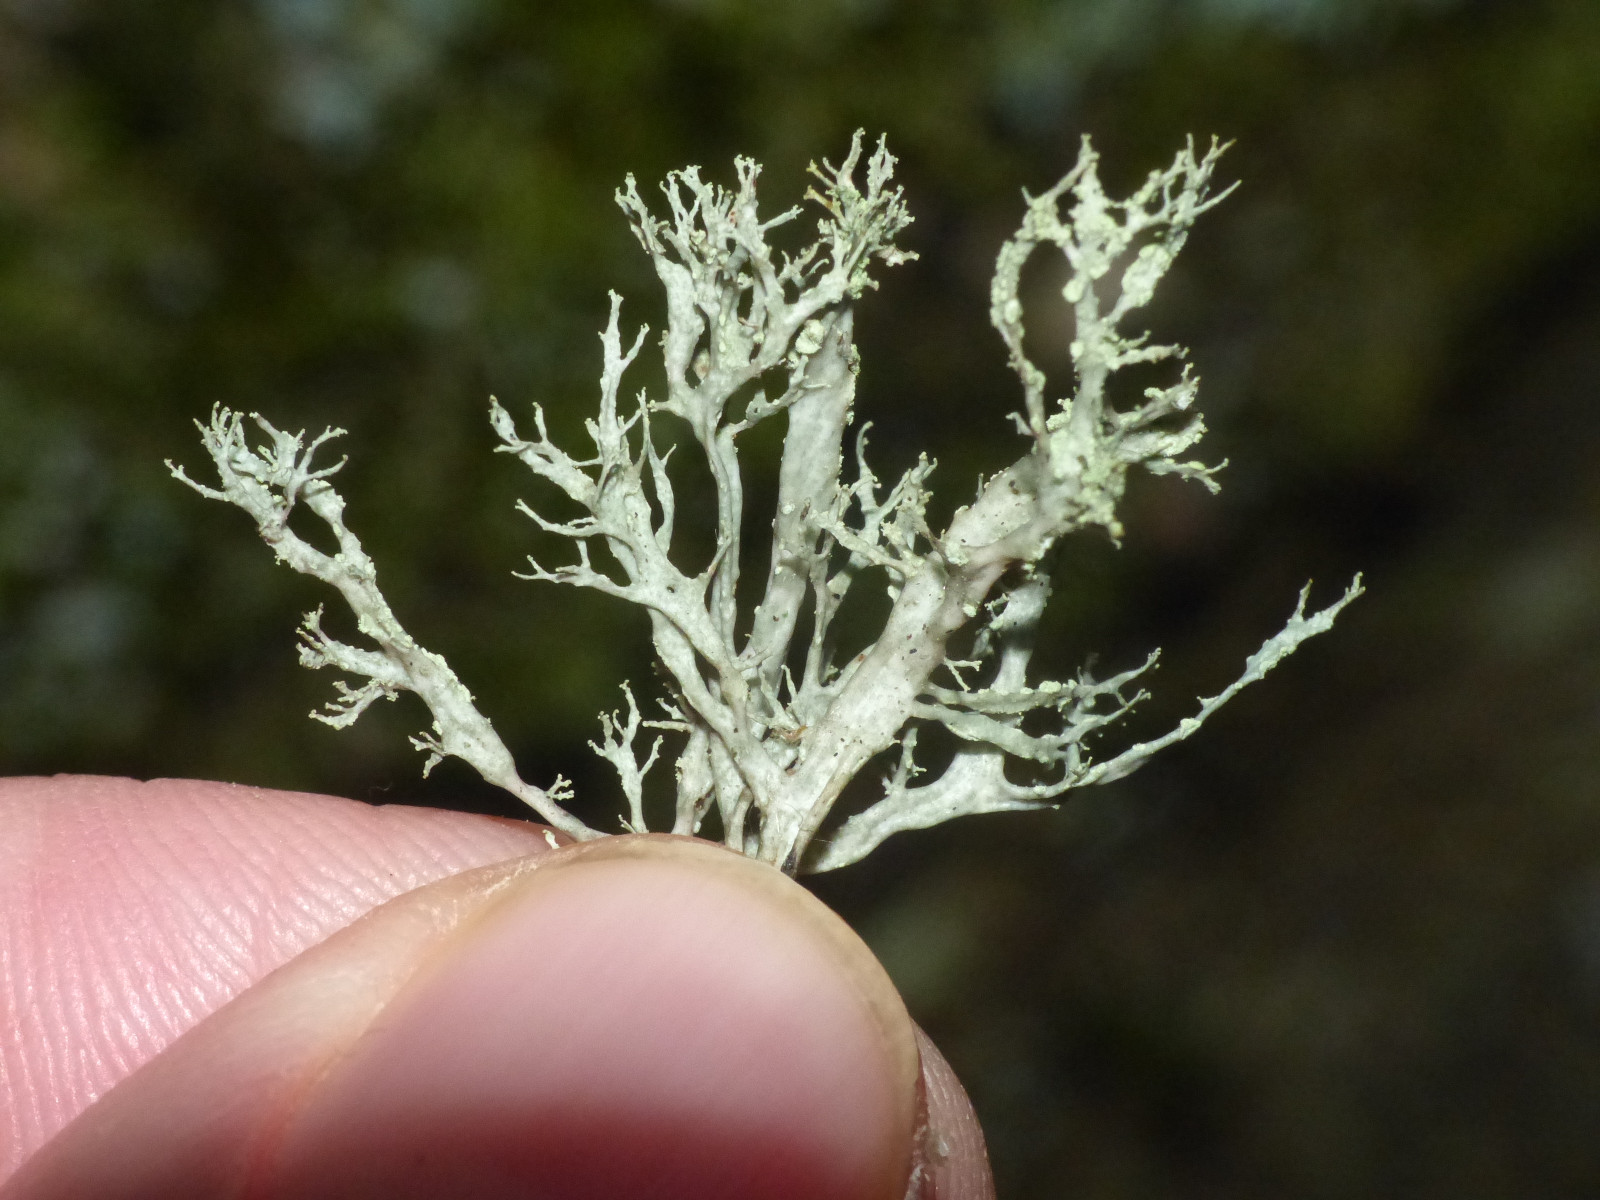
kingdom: Fungi
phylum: Ascomycota
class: Lecanoromycetes
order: Lecanorales
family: Ramalinaceae
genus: Ramalina
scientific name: Ramalina farinacea
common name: melet grenlav
